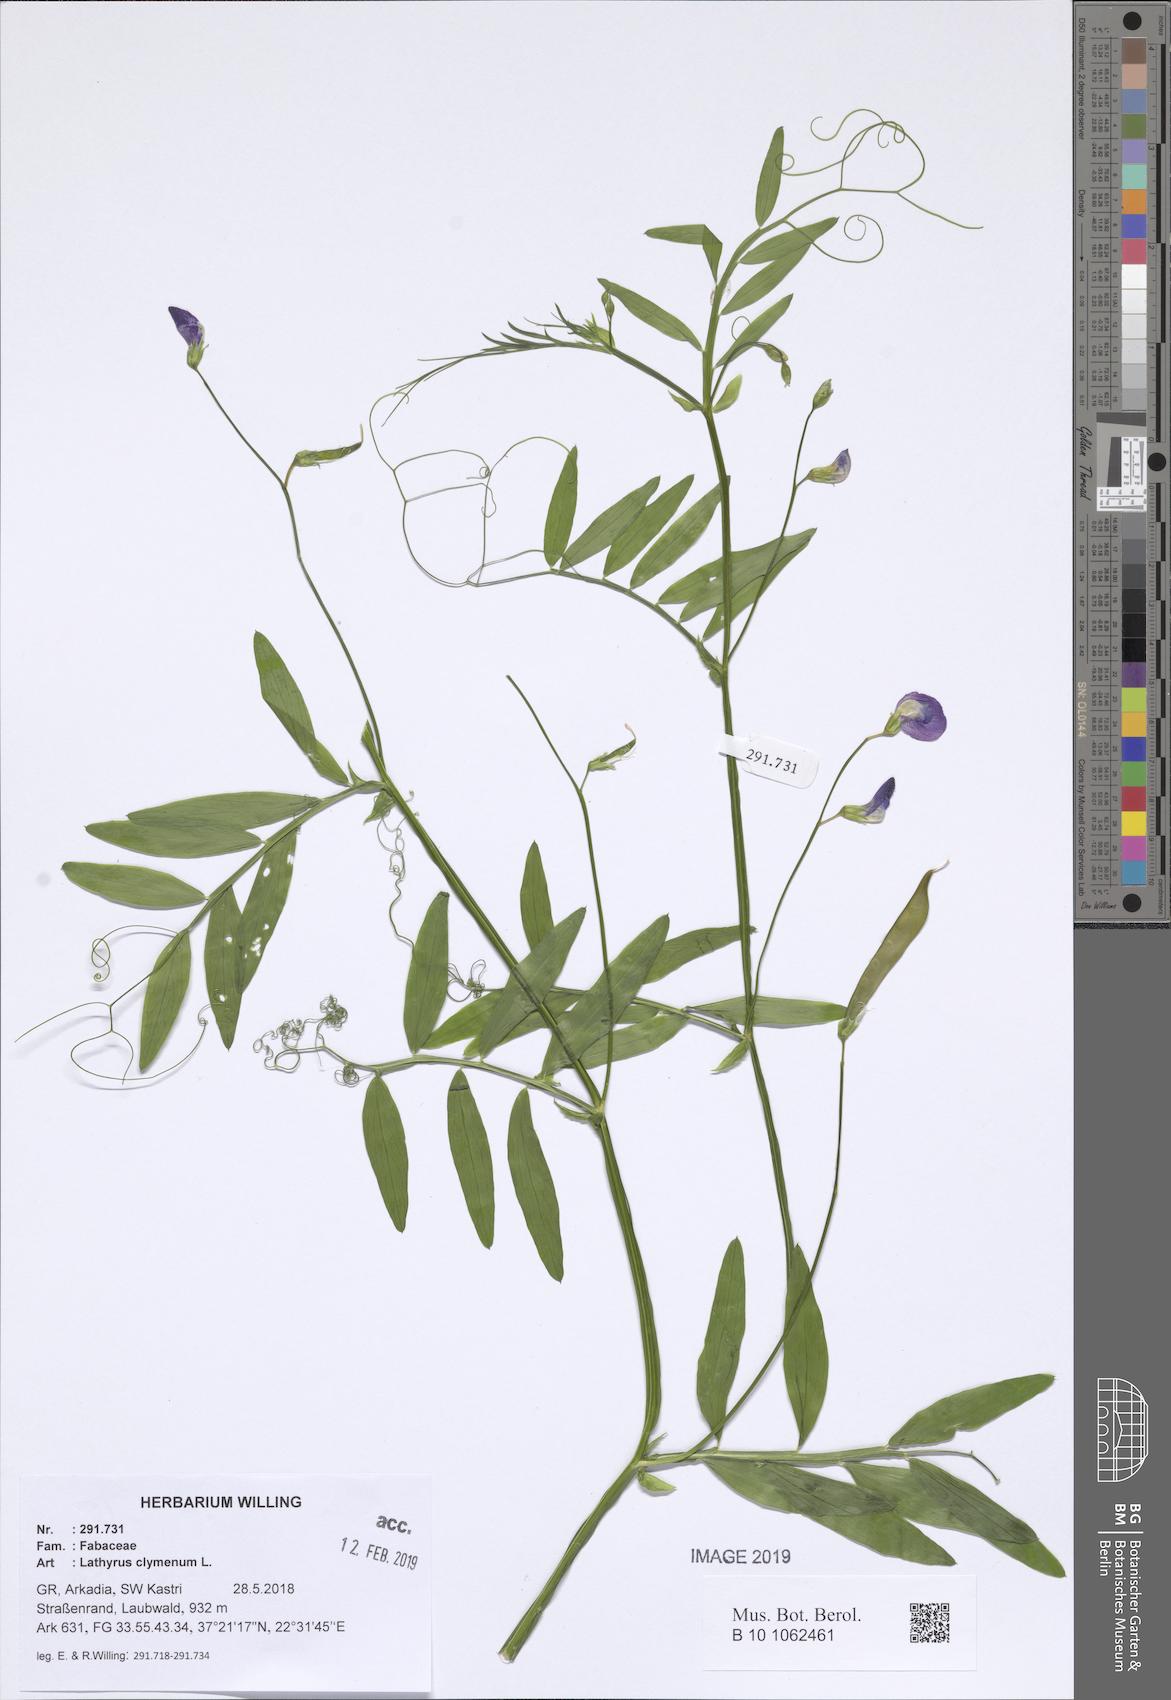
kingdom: Plantae
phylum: Tracheophyta
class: Magnoliopsida
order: Fabales
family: Fabaceae
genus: Lathyrus
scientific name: Lathyrus clymenum
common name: Spanish vetchling
